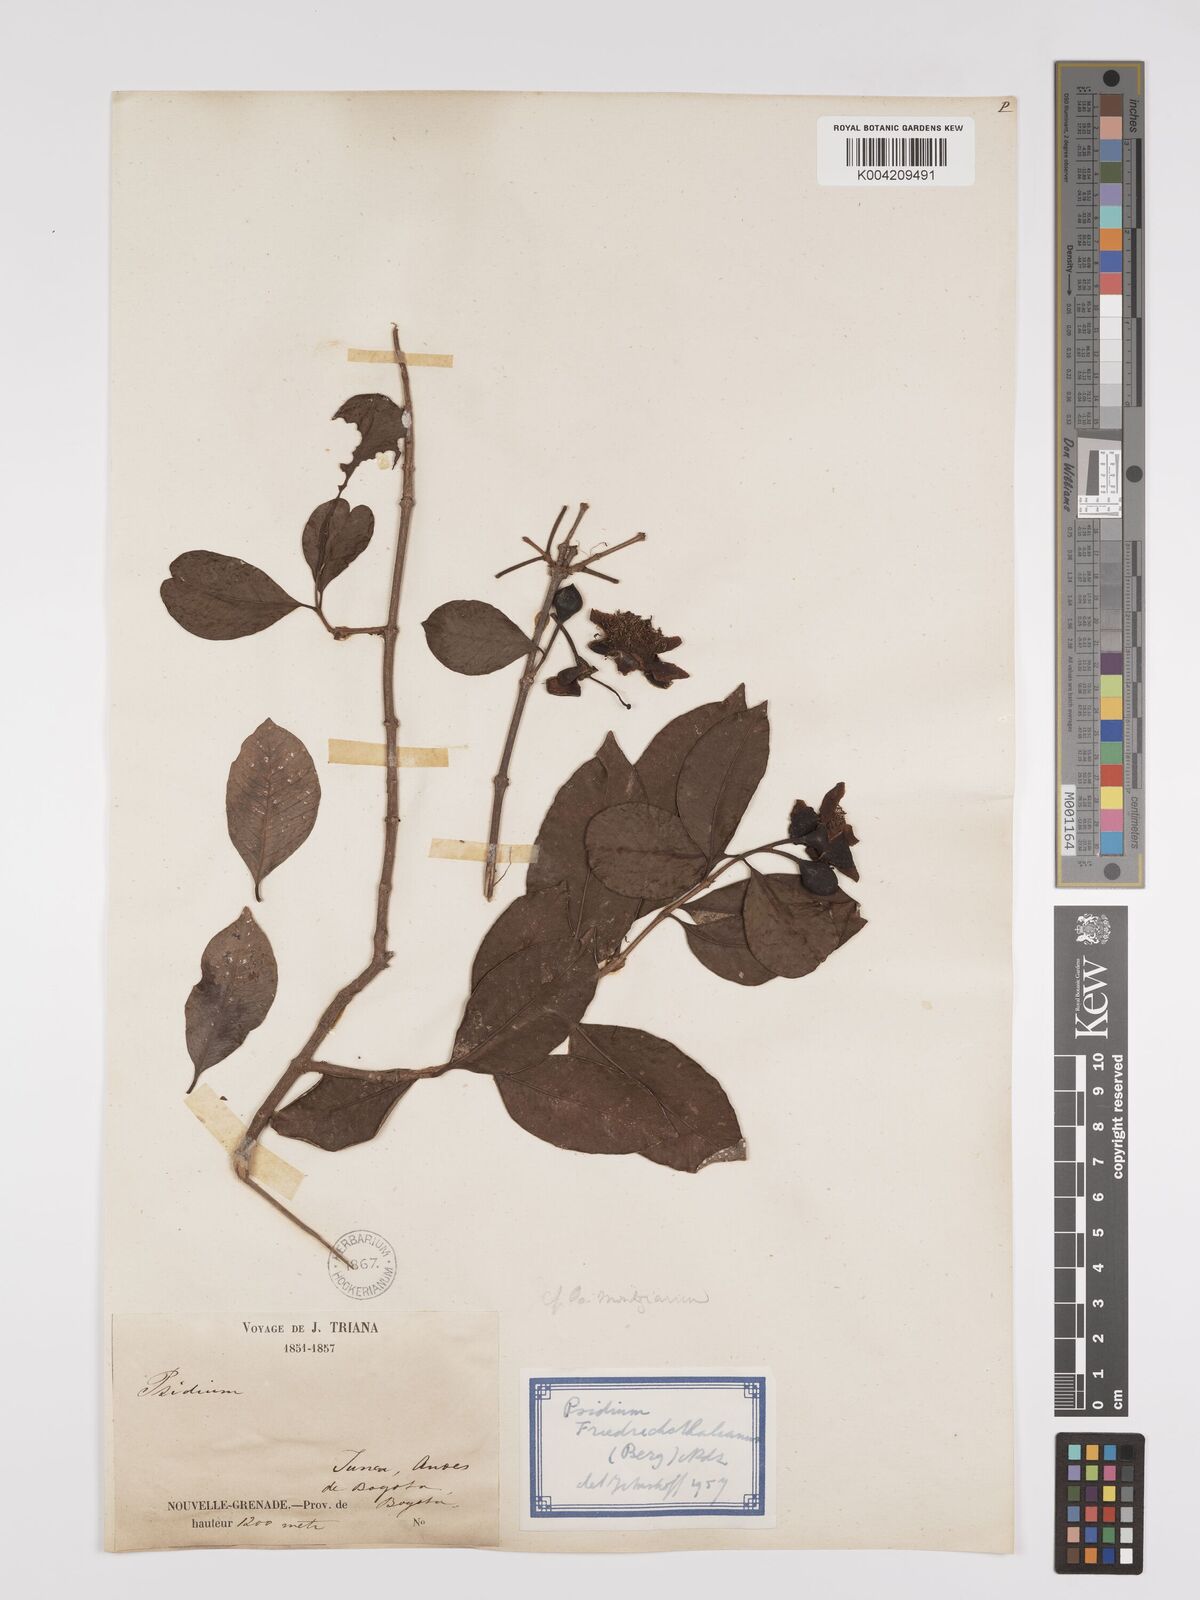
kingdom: Plantae
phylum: Tracheophyta
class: Magnoliopsida
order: Myrtales
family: Myrtaceae
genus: Psidium
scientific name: Psidium friedrichsthalianum
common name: Costa rican guava
